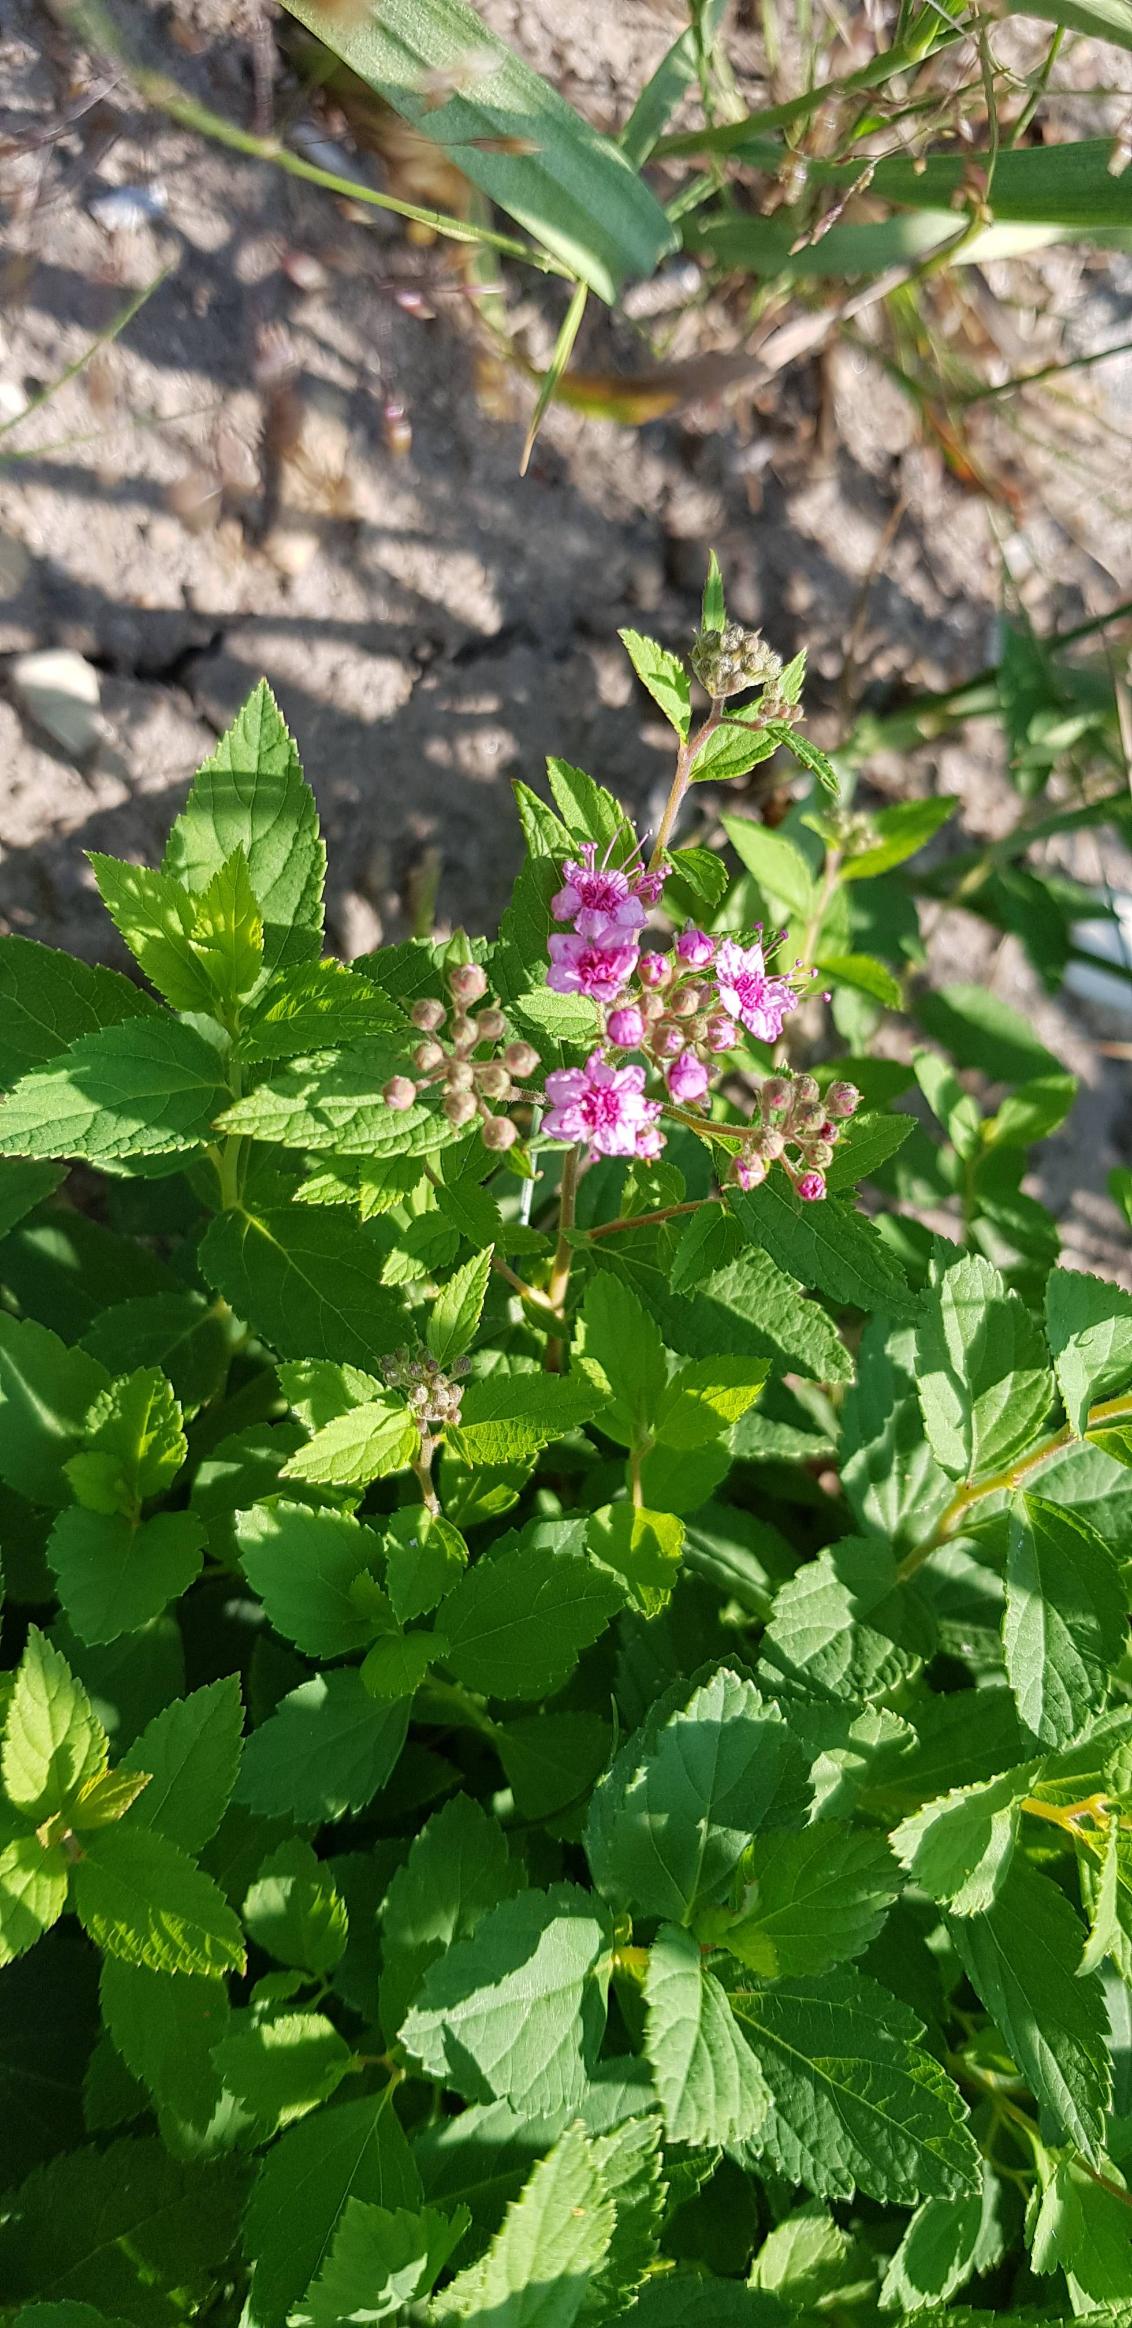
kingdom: Plantae
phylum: Tracheophyta
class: Magnoliopsida
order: Rosales
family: Rosaceae
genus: Spiraea
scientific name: Spiraea japonica
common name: Rosen-spiræa
